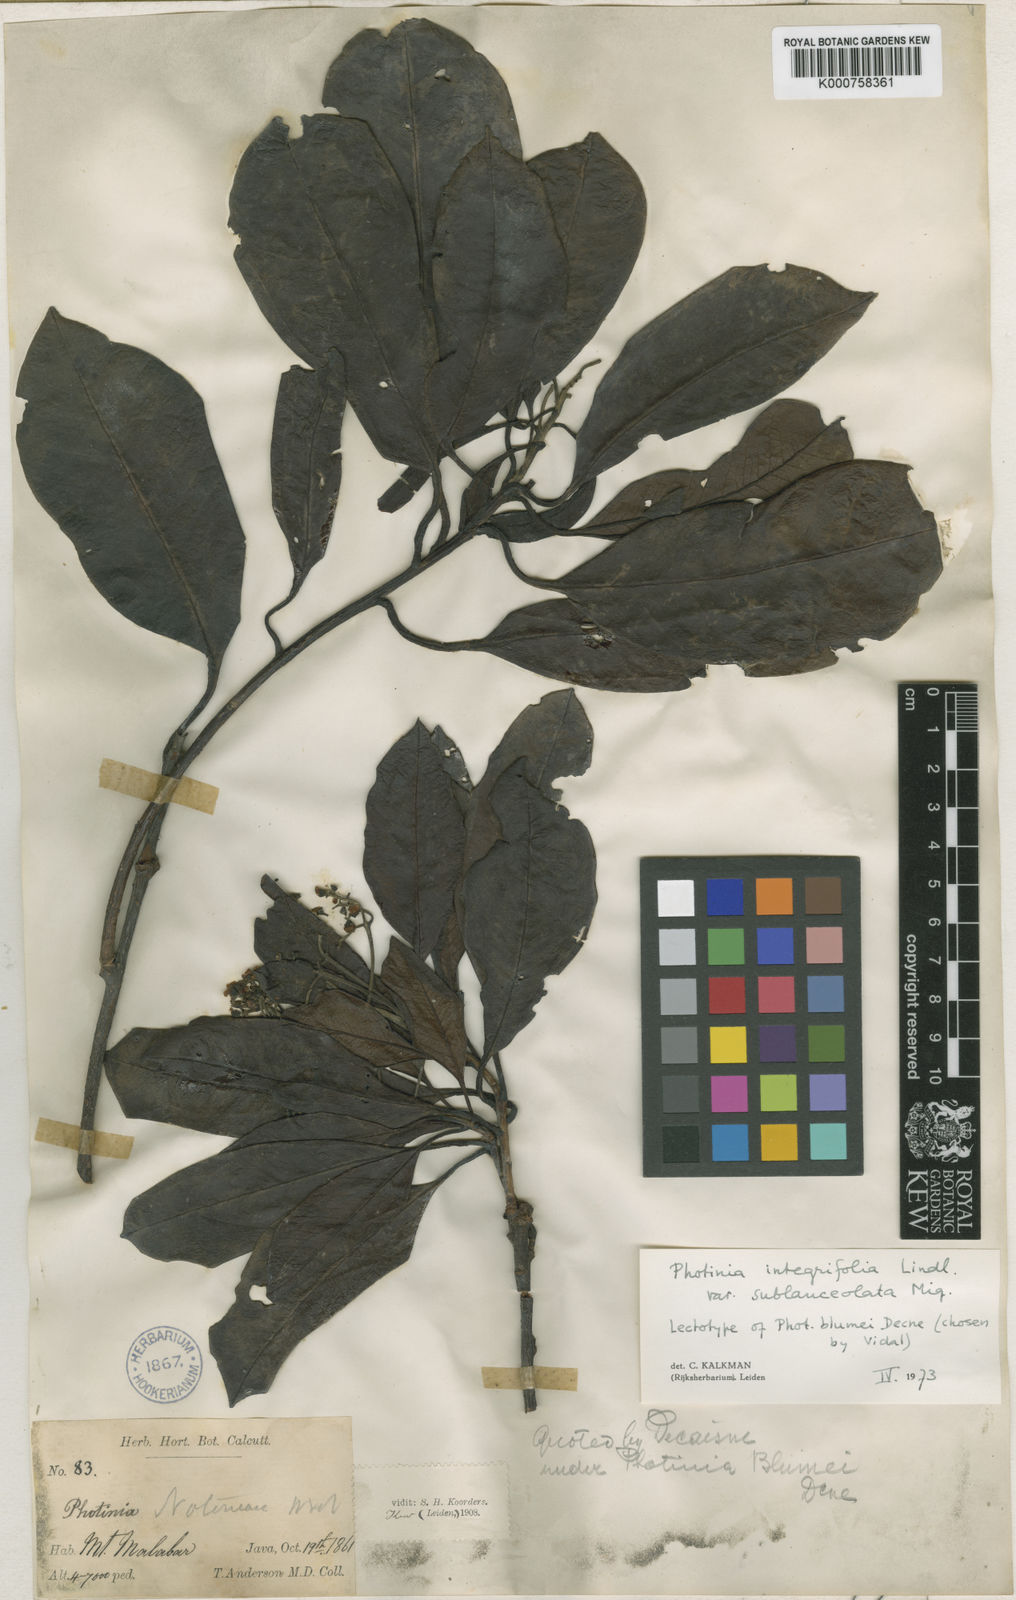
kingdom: Plantae
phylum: Tracheophyta
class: Magnoliopsida
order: Rosales
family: Rosaceae
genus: Photinia
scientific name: Photinia integrifolia
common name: Himalayan chokeberry
